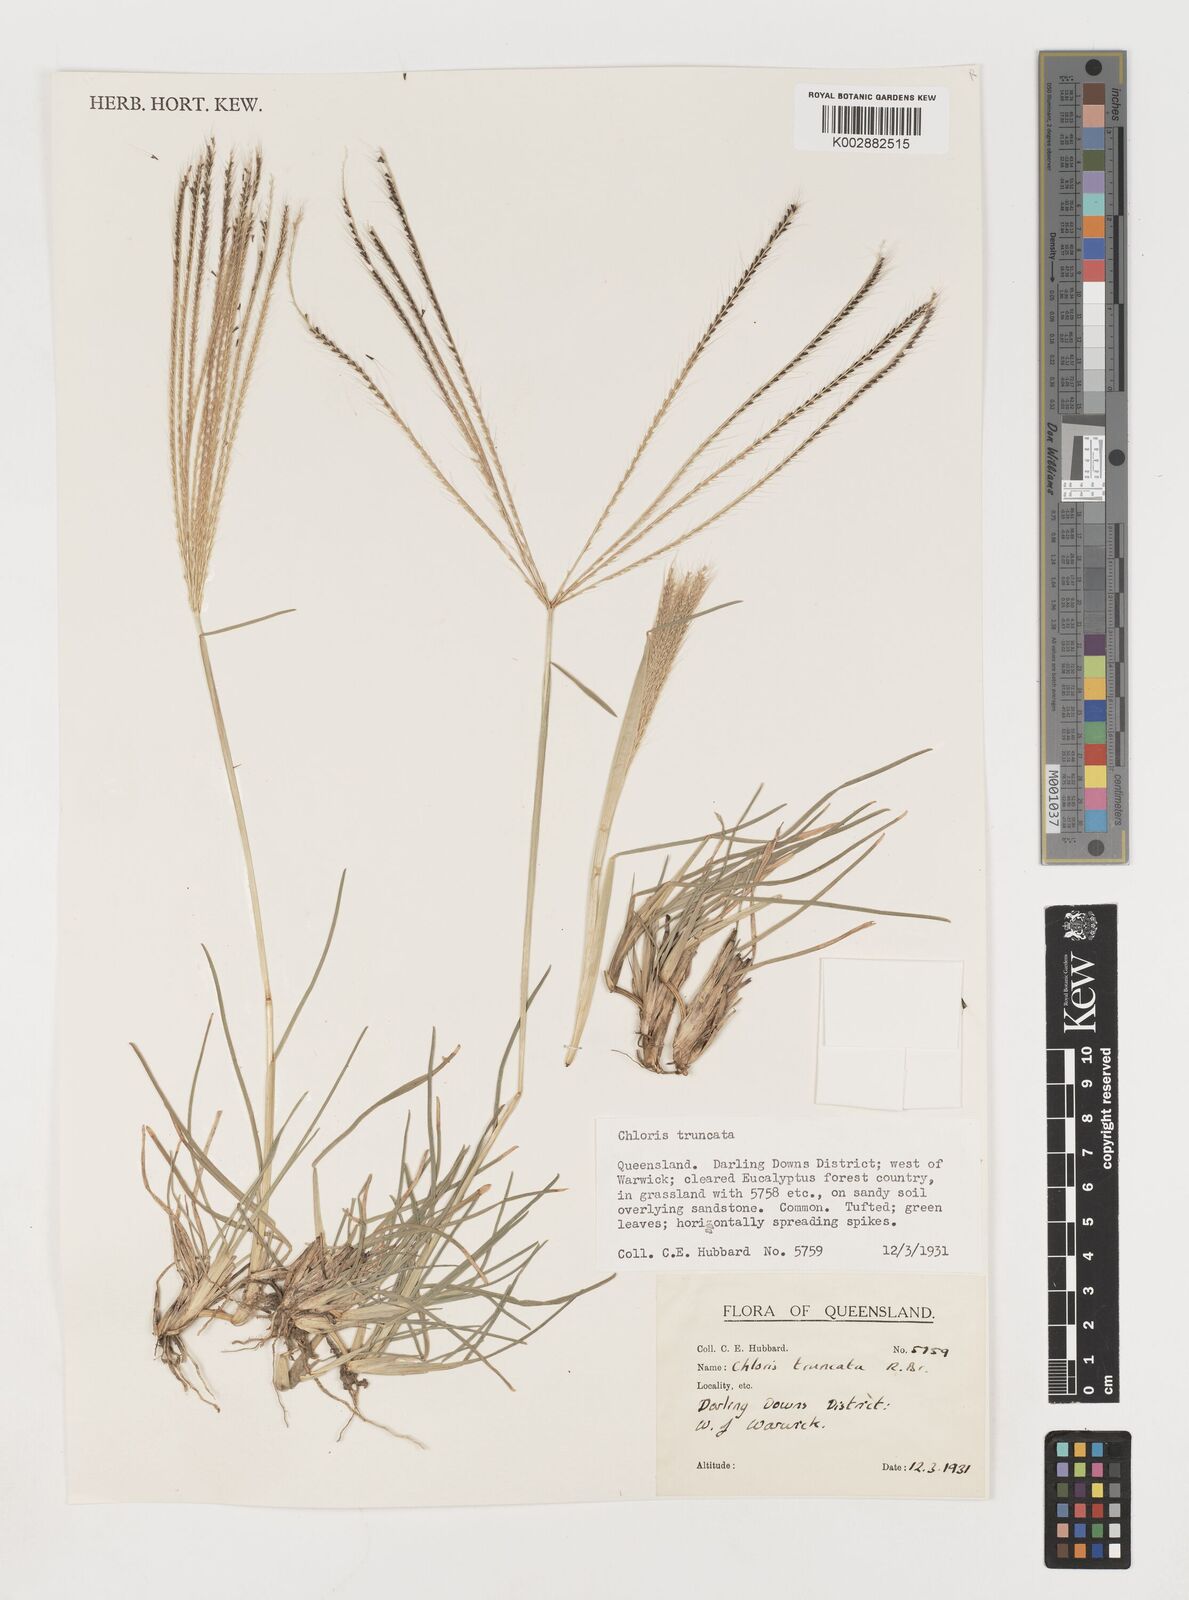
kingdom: Plantae
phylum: Tracheophyta
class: Liliopsida
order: Poales
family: Poaceae
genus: Chloris
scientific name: Chloris truncata
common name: Windmill-grass
